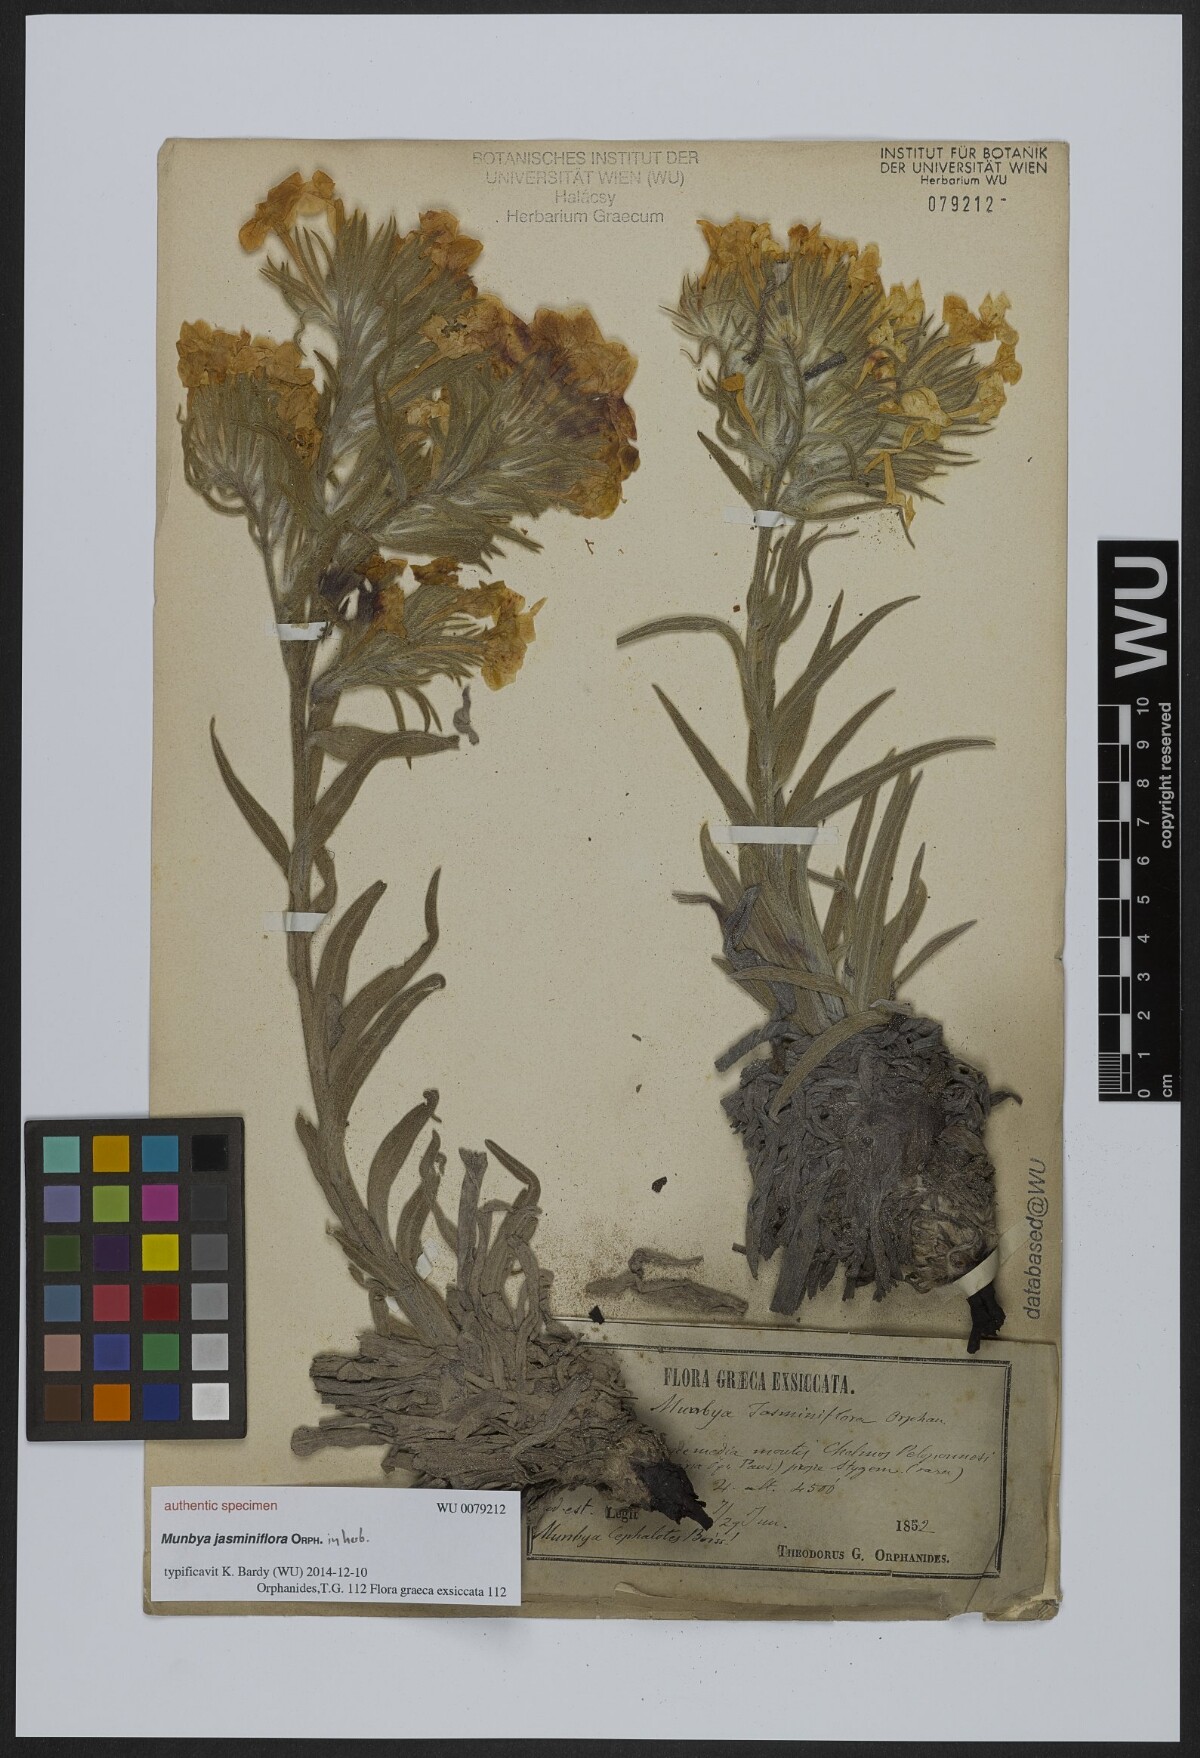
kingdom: Plantae
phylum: Tracheophyta
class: Magnoliopsida
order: Boraginales
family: Boraginaceae
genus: Arnebia
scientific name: Arnebia
